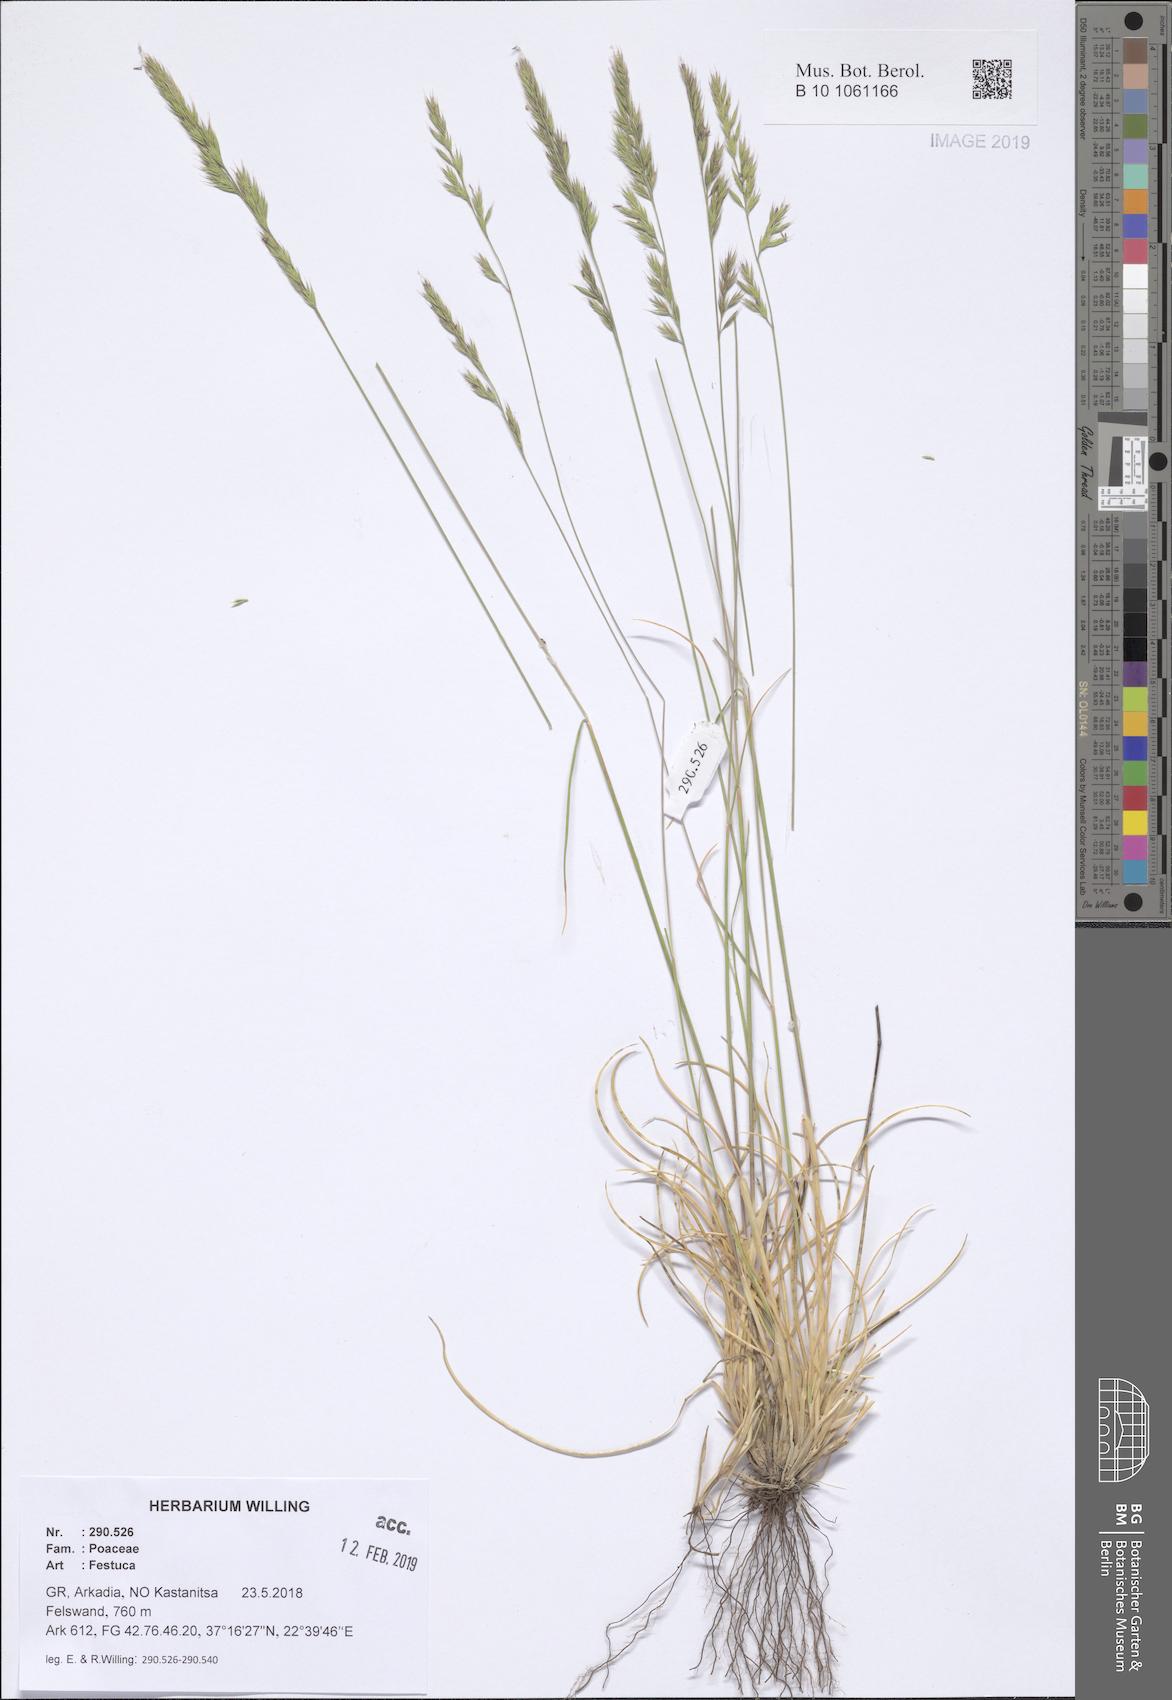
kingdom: Plantae
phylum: Tracheophyta
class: Liliopsida
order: Poales
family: Poaceae
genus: Festuca
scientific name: Festuca
